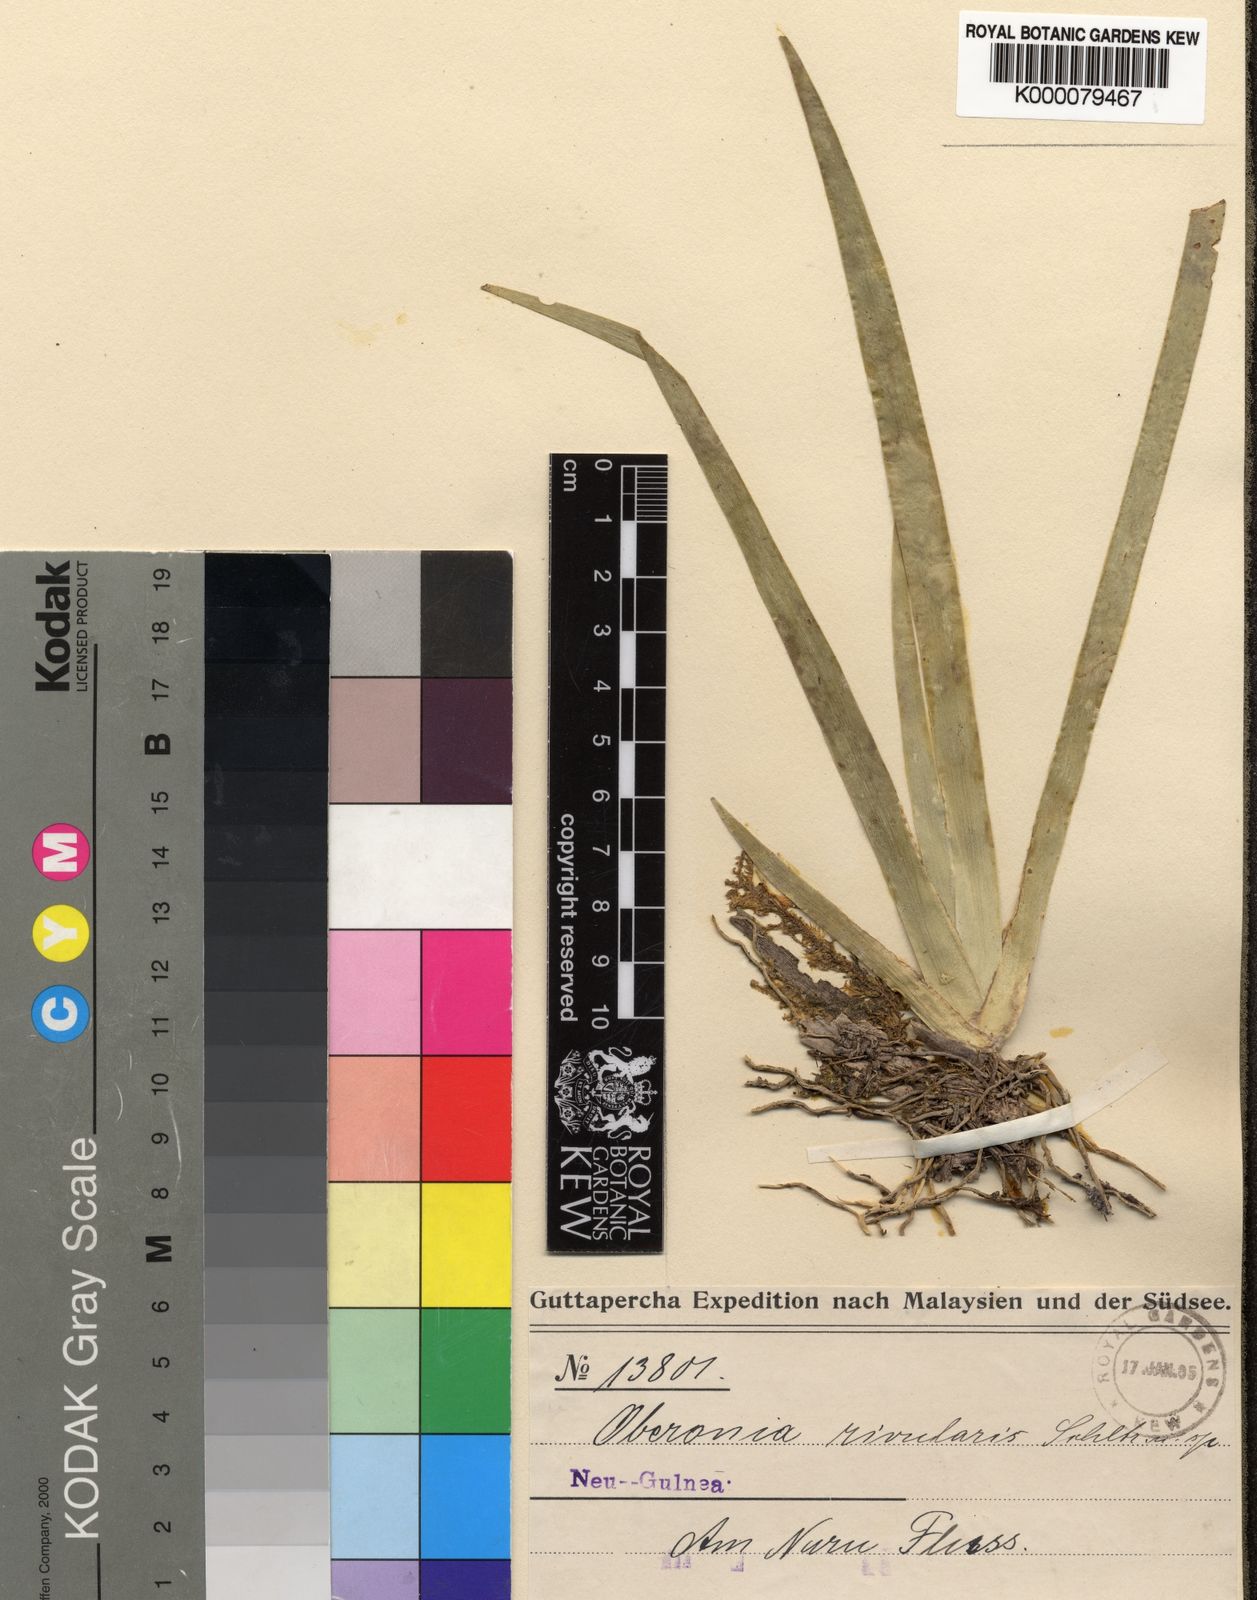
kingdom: Plantae
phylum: Tracheophyta
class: Liliopsida
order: Asparagales
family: Orchidaceae
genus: Oberonia
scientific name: Oberonia heliophila
